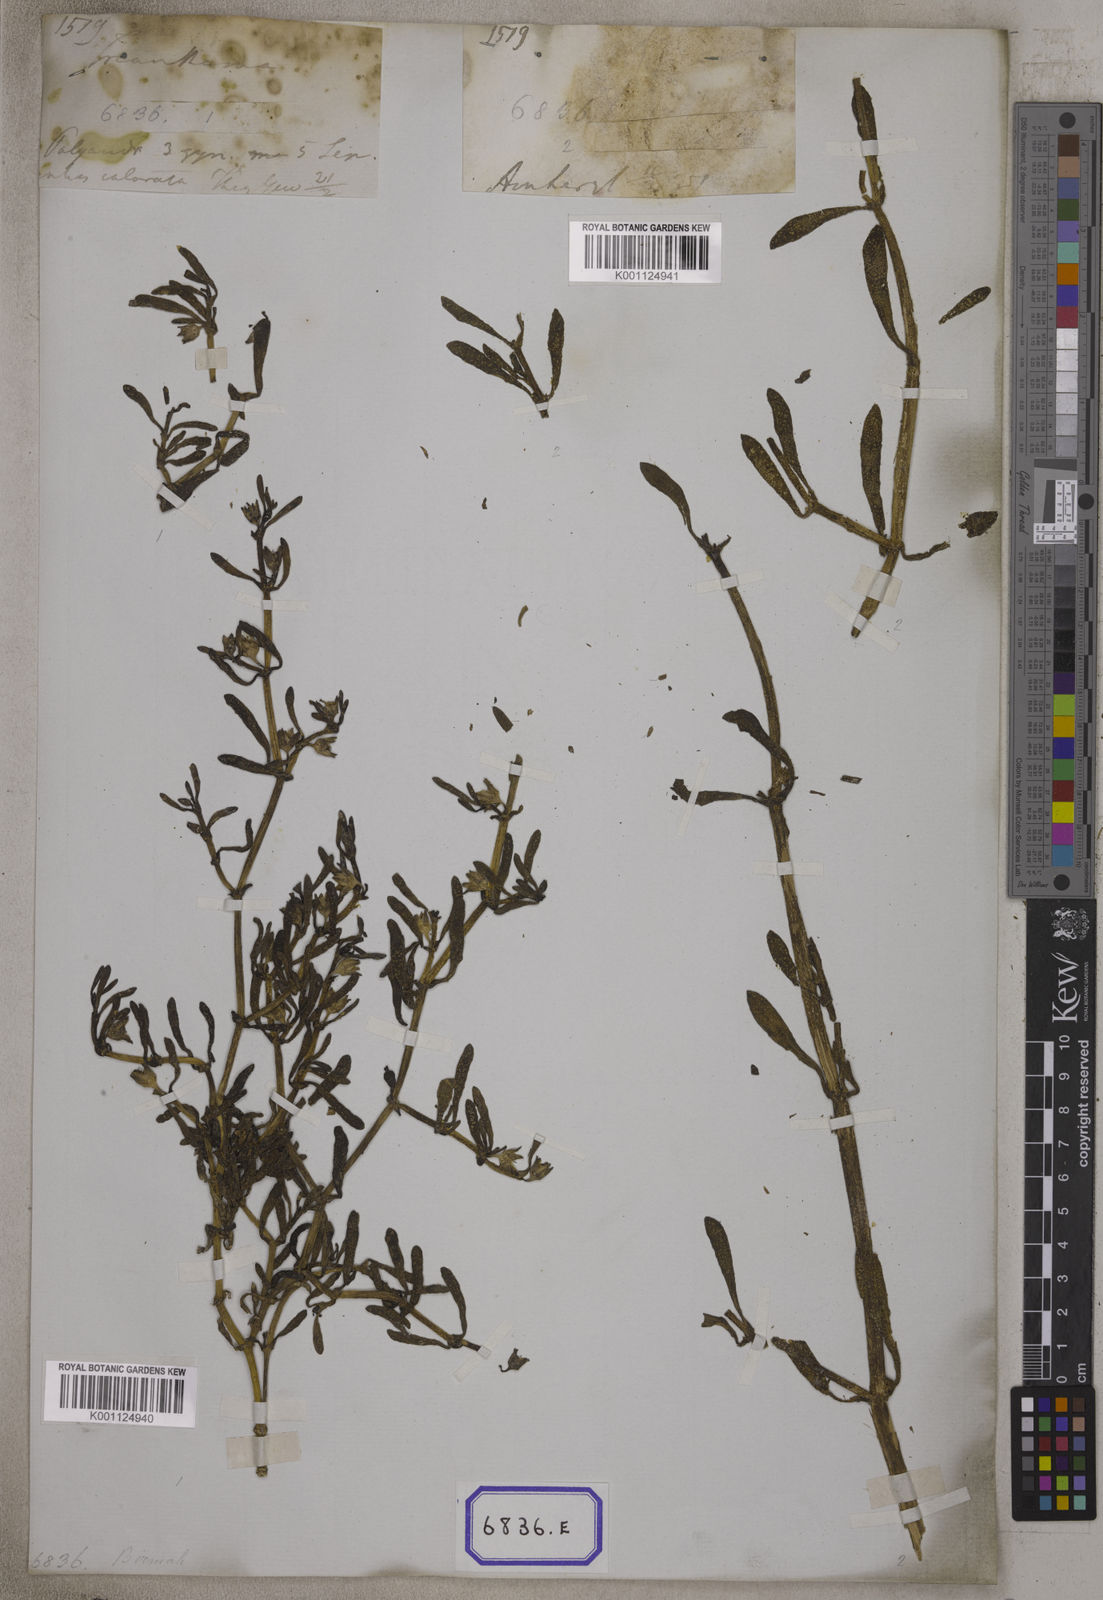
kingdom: Plantae
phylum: Tracheophyta
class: Magnoliopsida
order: Caryophyllales
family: Aizoaceae
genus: Sesuvium
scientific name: Sesuvium portulacastrum
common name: Sea-purslane
